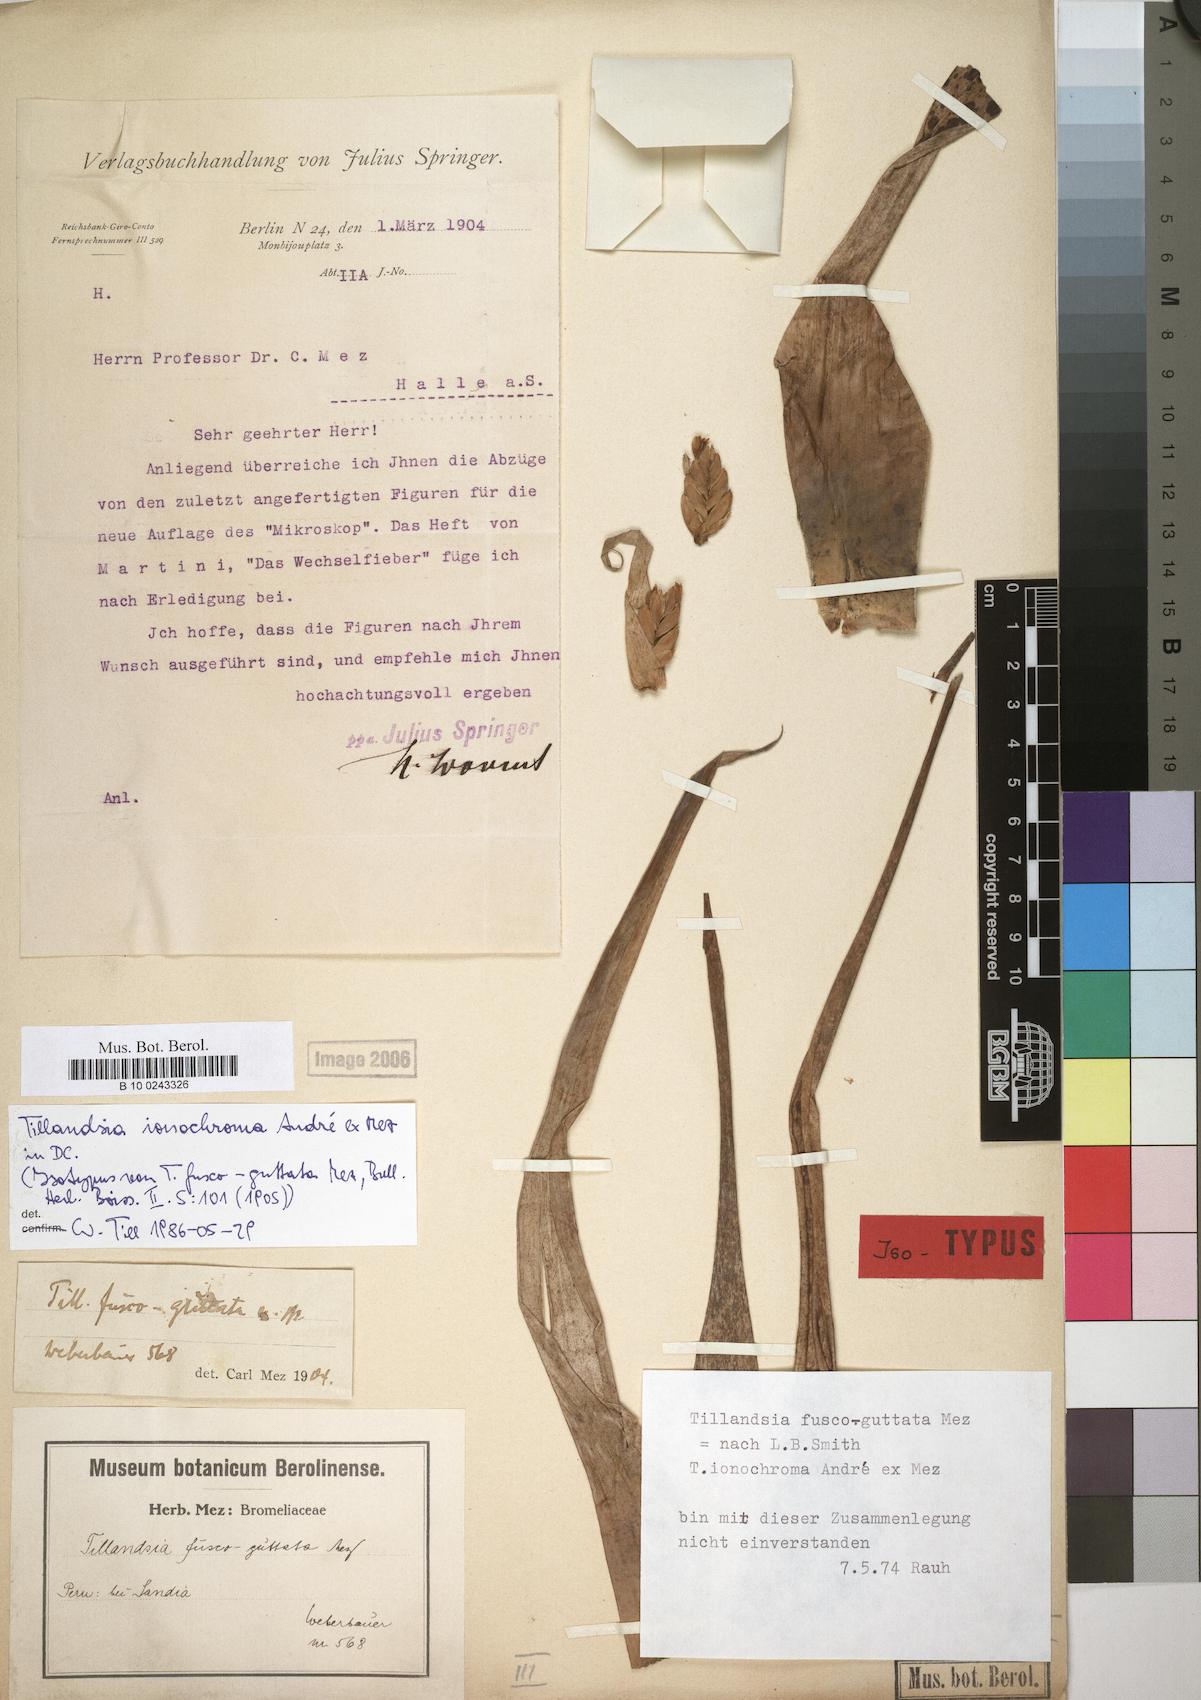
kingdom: Plantae
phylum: Tracheophyta
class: Liliopsida
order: Poales
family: Bromeliaceae
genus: Tillandsia
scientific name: Tillandsia ionochroma
